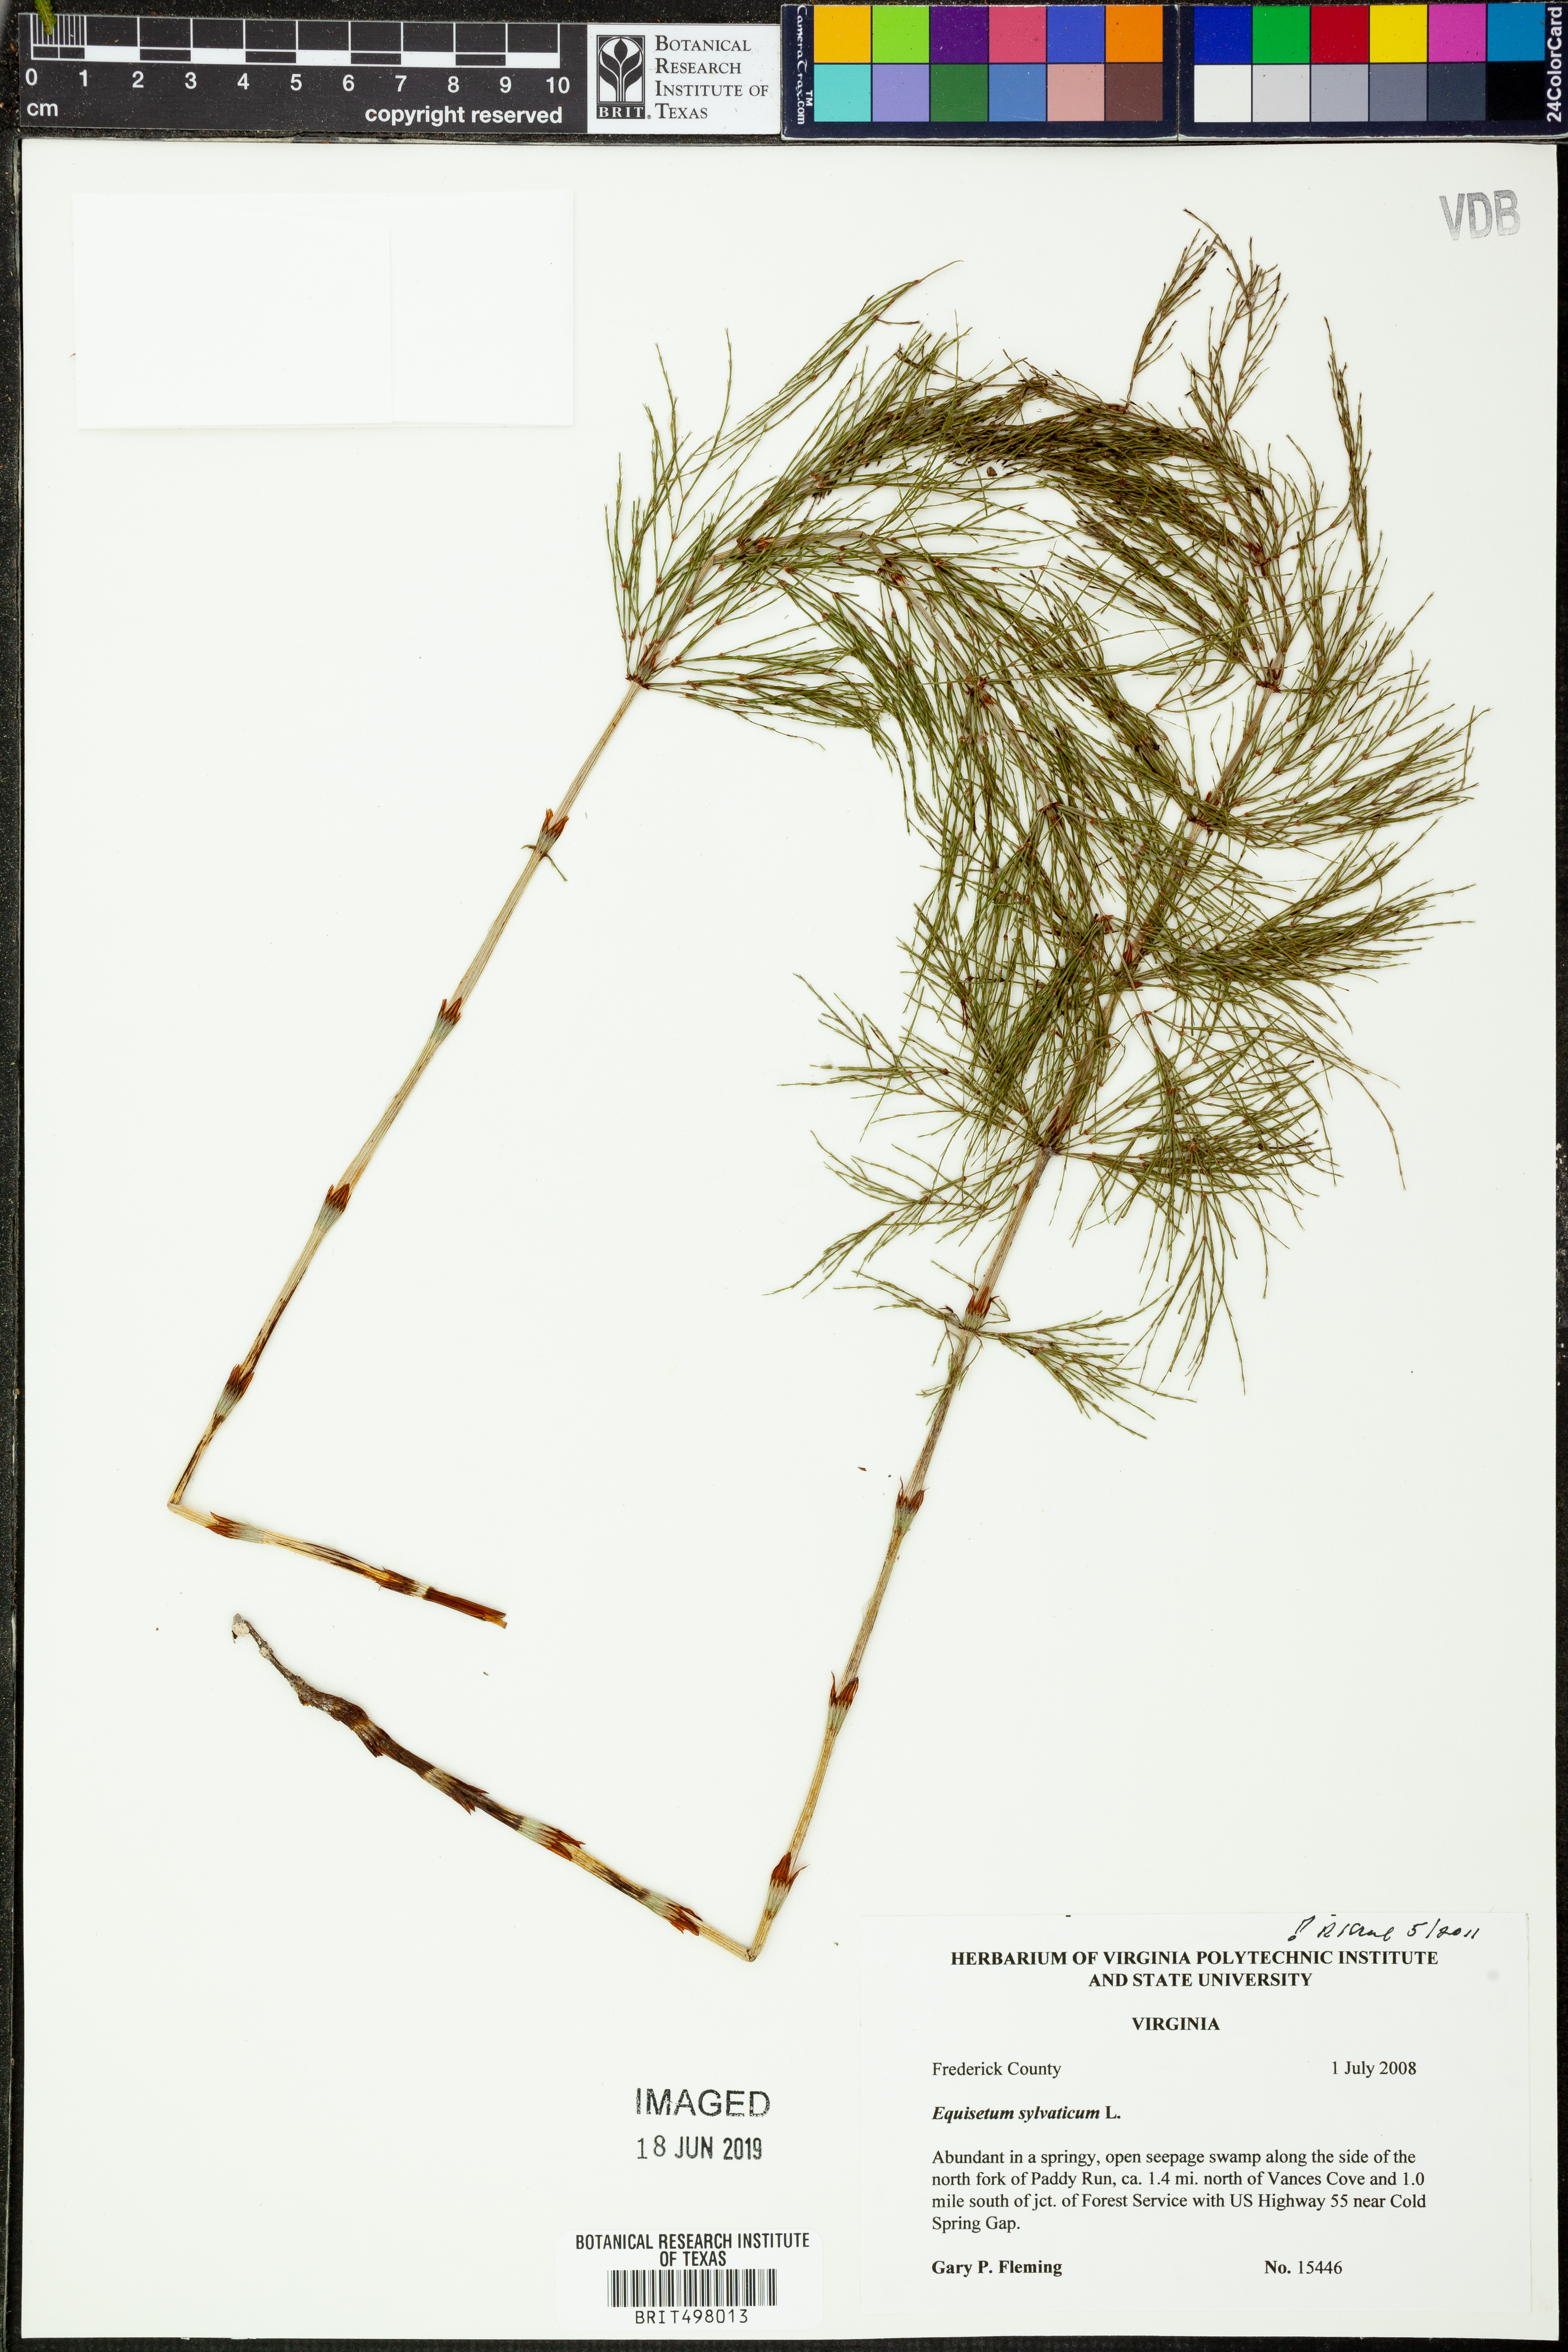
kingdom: Plantae
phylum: Tracheophyta
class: Polypodiopsida
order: Equisetales
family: Equisetaceae
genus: Equisetum
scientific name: Equisetum sylvaticum
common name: Wood horsetail
